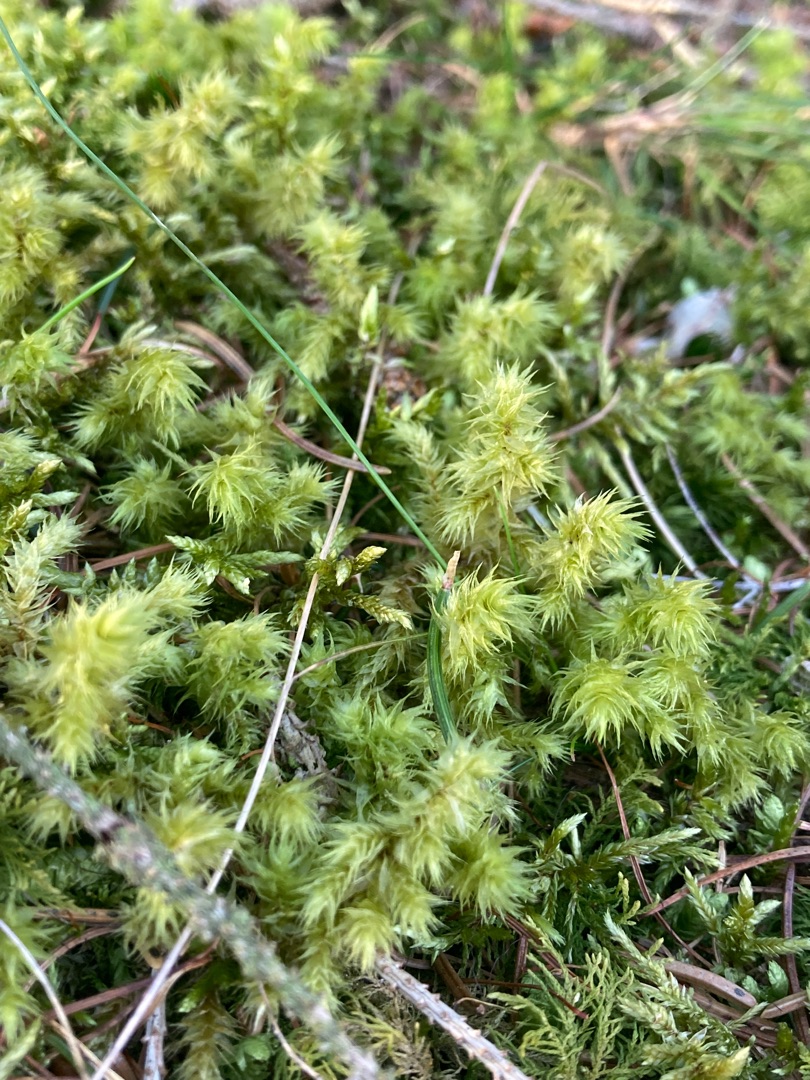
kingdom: Plantae
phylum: Bryophyta
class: Bryopsida
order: Hypnales
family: Hylocomiaceae
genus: Hylocomiadelphus
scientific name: Hylocomiadelphus triquetrus
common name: Stor kransemos
